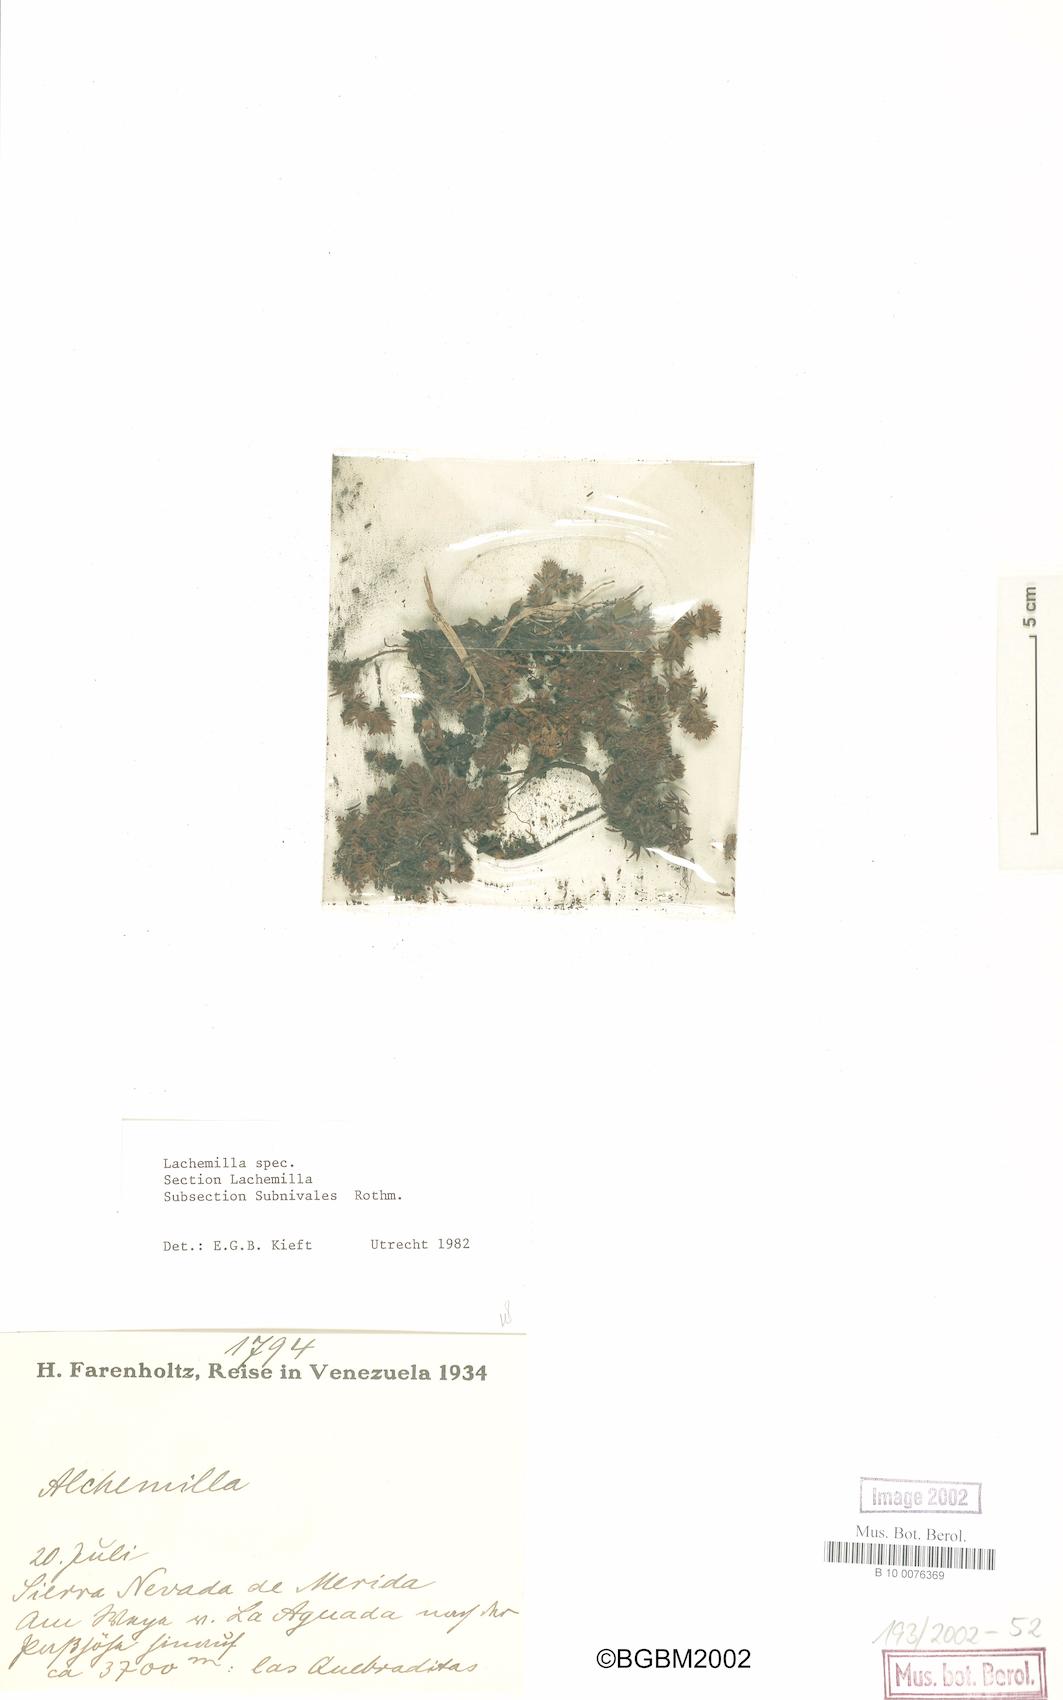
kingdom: Plantae
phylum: Tracheophyta
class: Magnoliopsida
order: Rosales
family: Rosaceae
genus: Lachemilla
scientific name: Lachemilla
